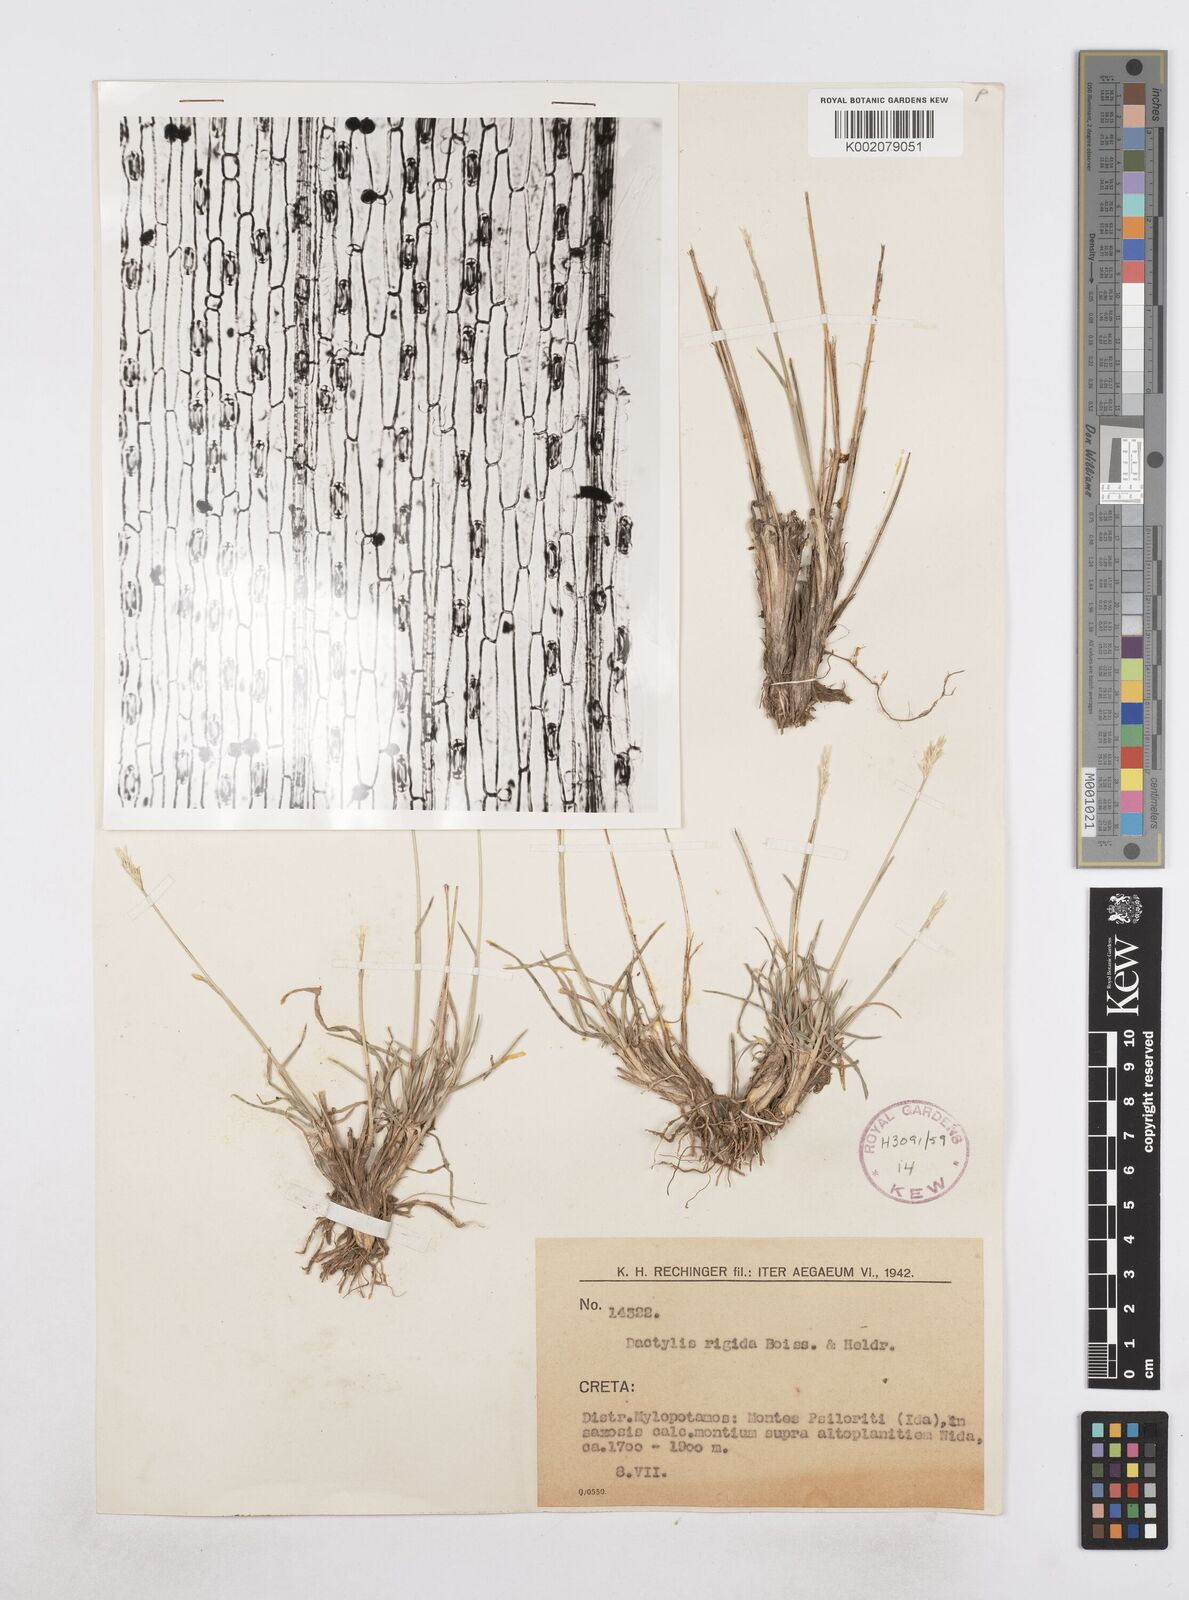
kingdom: Plantae
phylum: Tracheophyta
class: Liliopsida
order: Poales
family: Poaceae
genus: Dactylis
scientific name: Dactylis glomerata
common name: Orchardgrass
